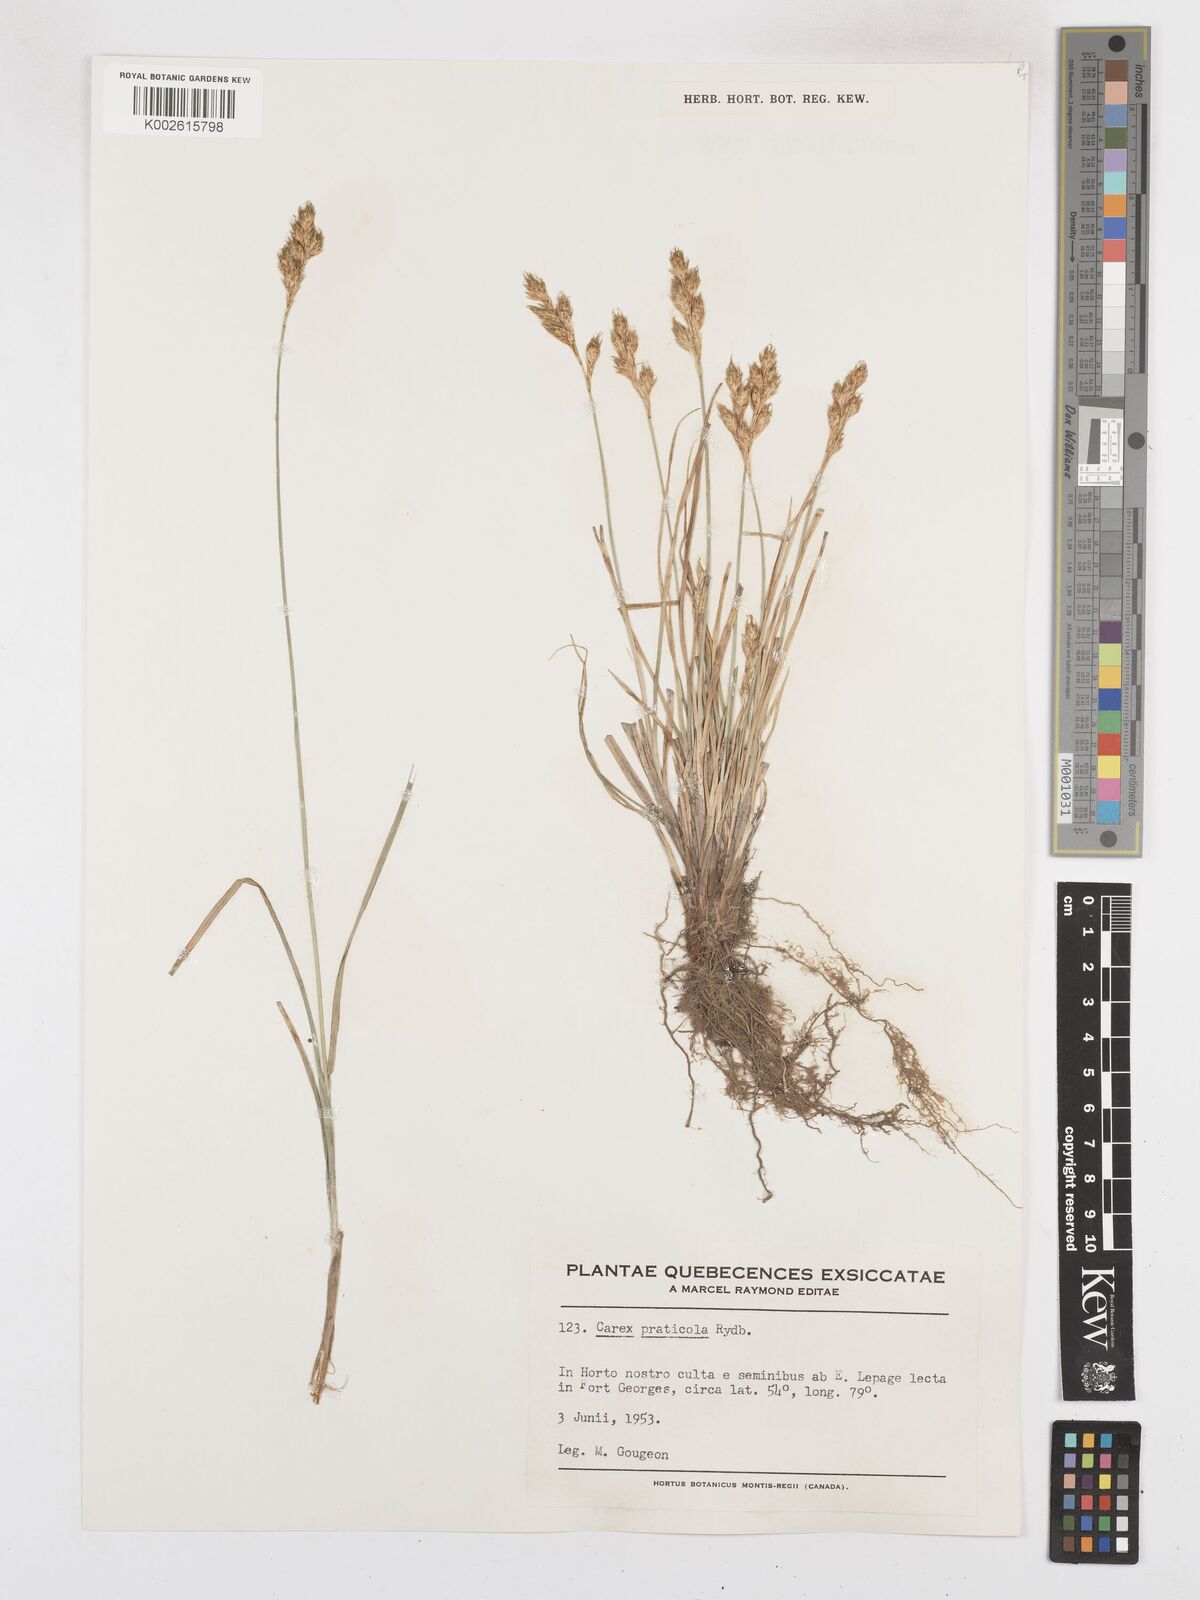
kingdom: Plantae
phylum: Tracheophyta
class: Liliopsida
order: Poales
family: Cyperaceae
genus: Carex
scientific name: Carex praticola
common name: Large-fruited oval sedge
